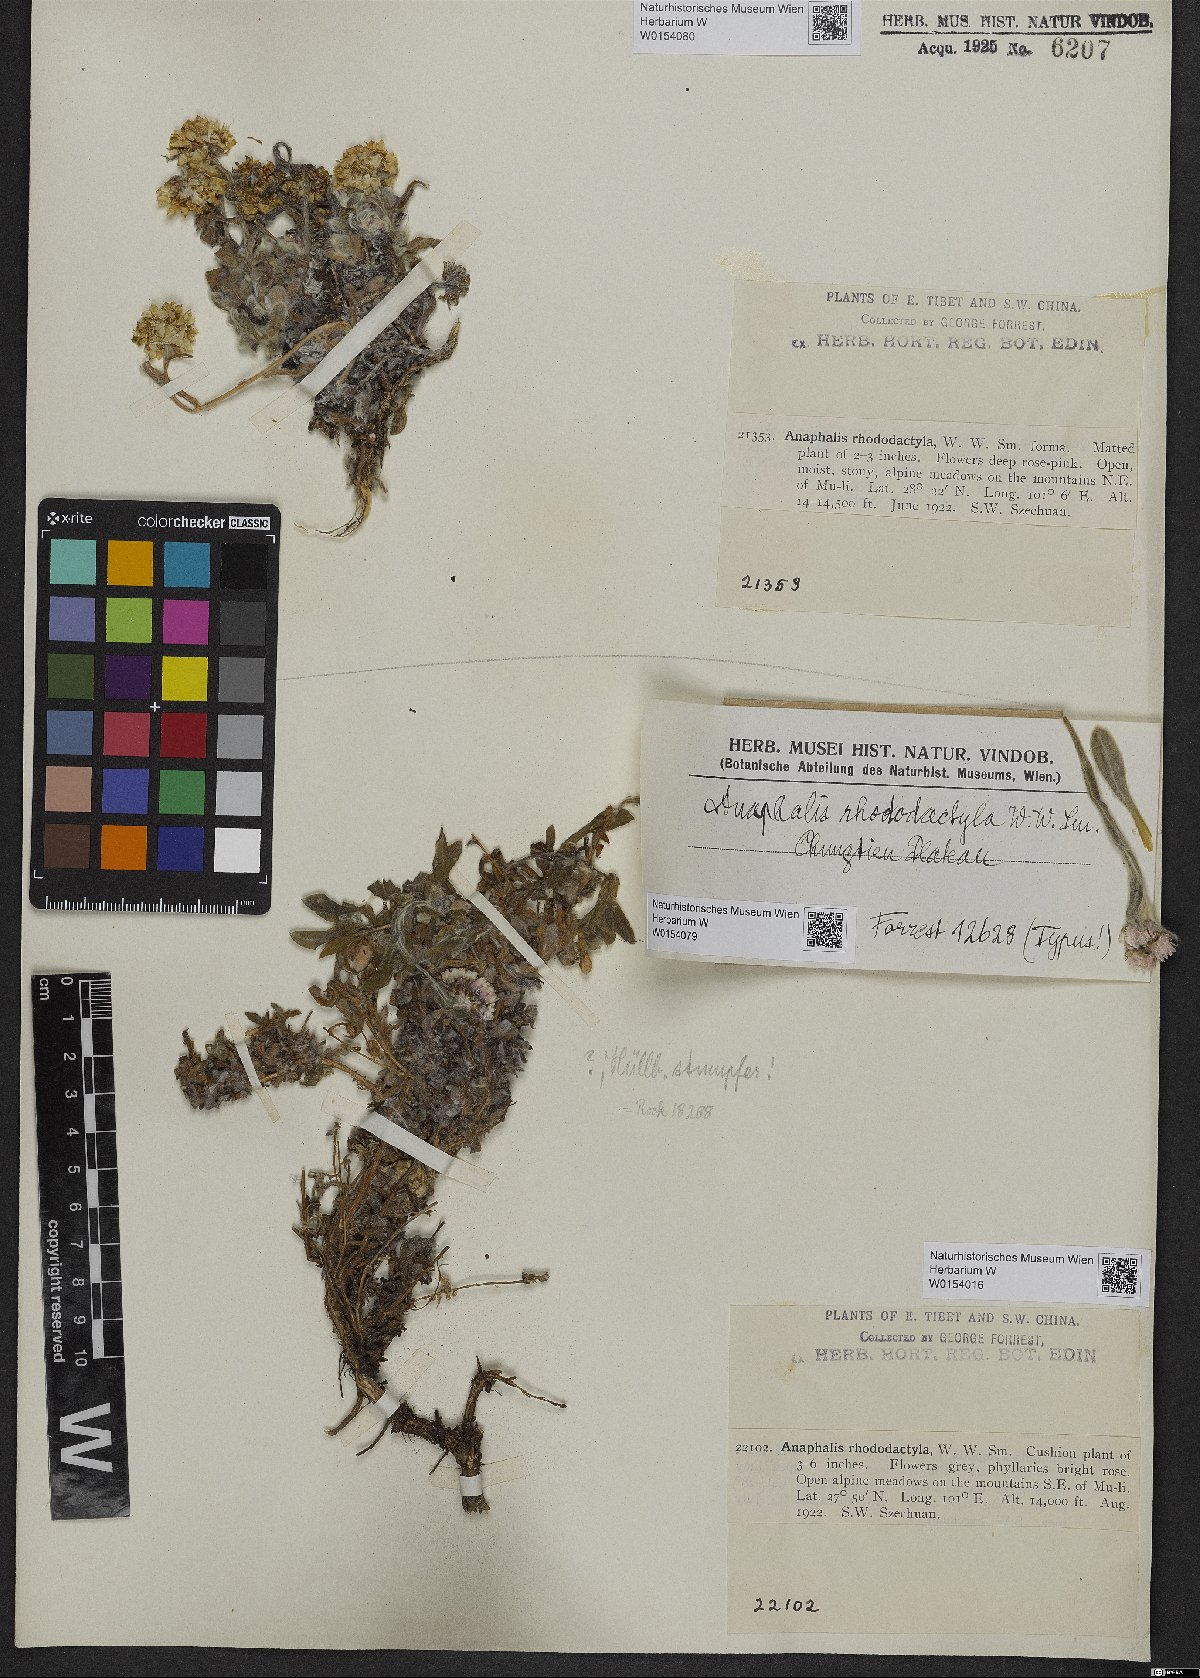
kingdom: Plantae
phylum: Tracheophyta
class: Magnoliopsida
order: Asterales
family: Asteraceae
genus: Anaphalis
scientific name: Anaphalis rhododactyla
